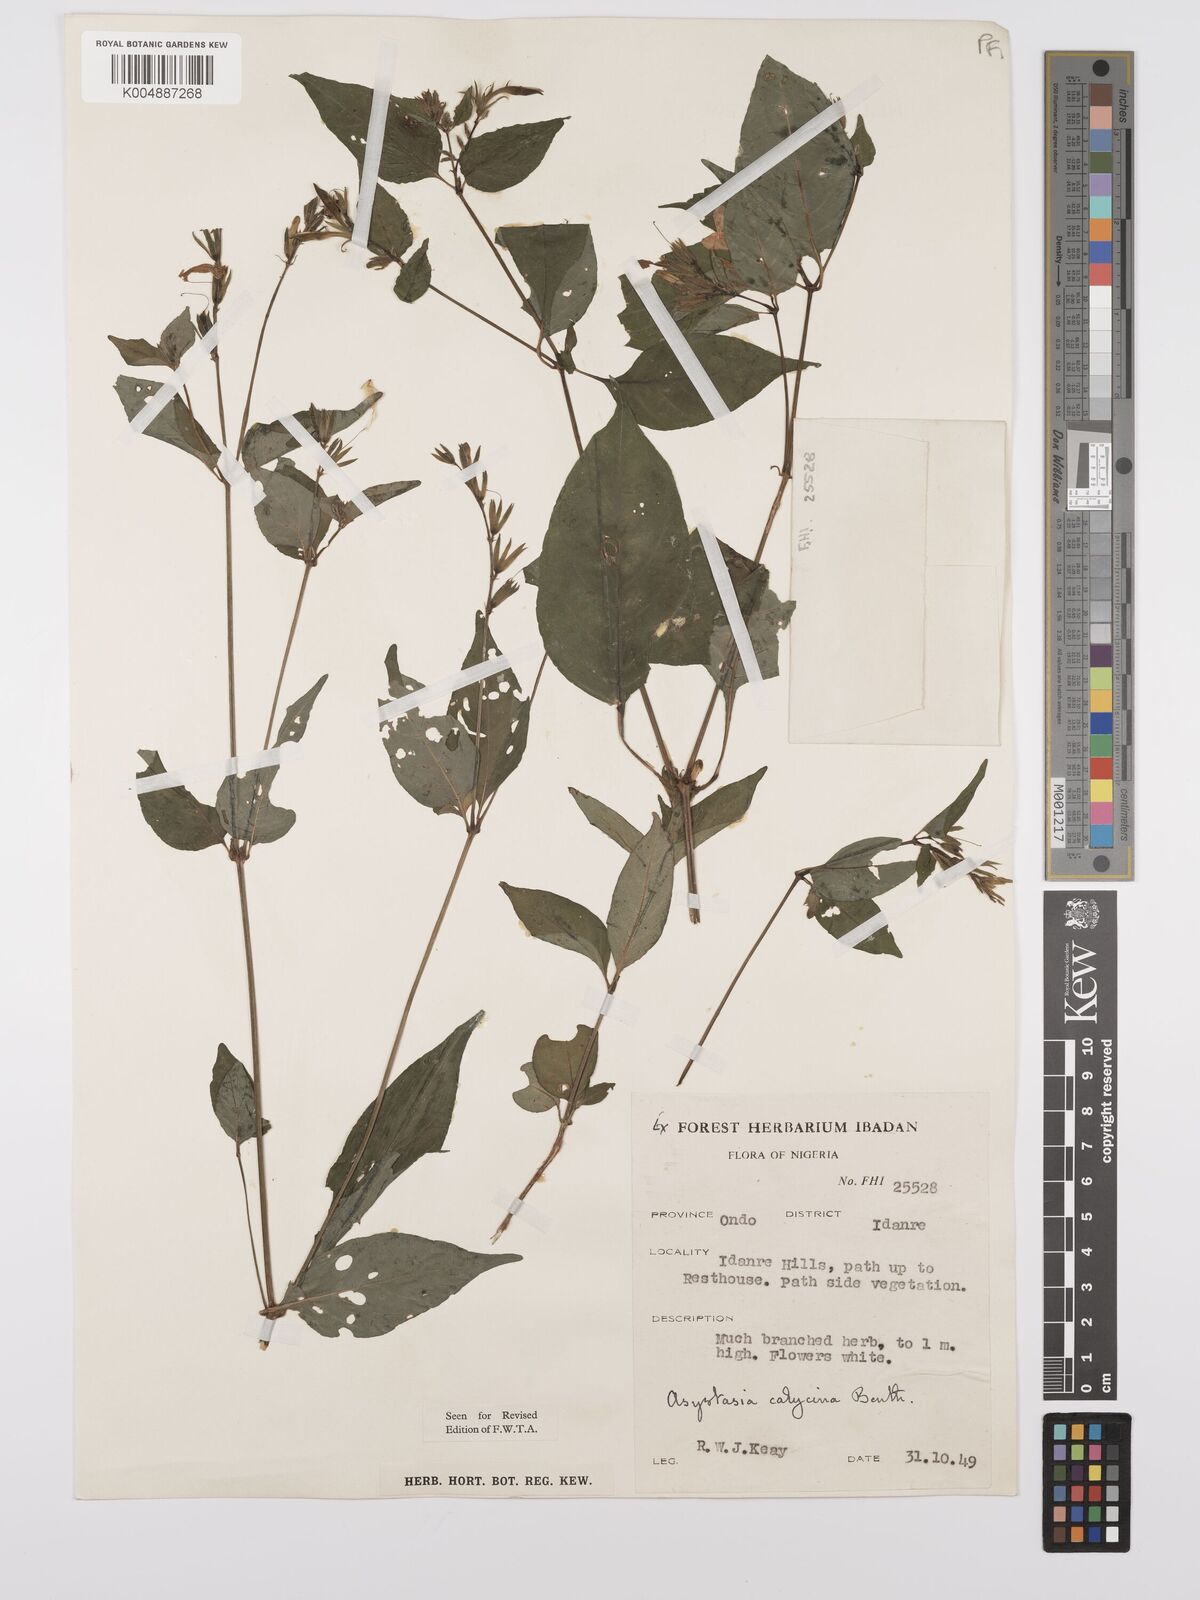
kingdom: Plantae
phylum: Tracheophyta
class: Magnoliopsida
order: Lamiales
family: Acanthaceae
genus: Asystasia
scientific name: Asystasia buettneri
